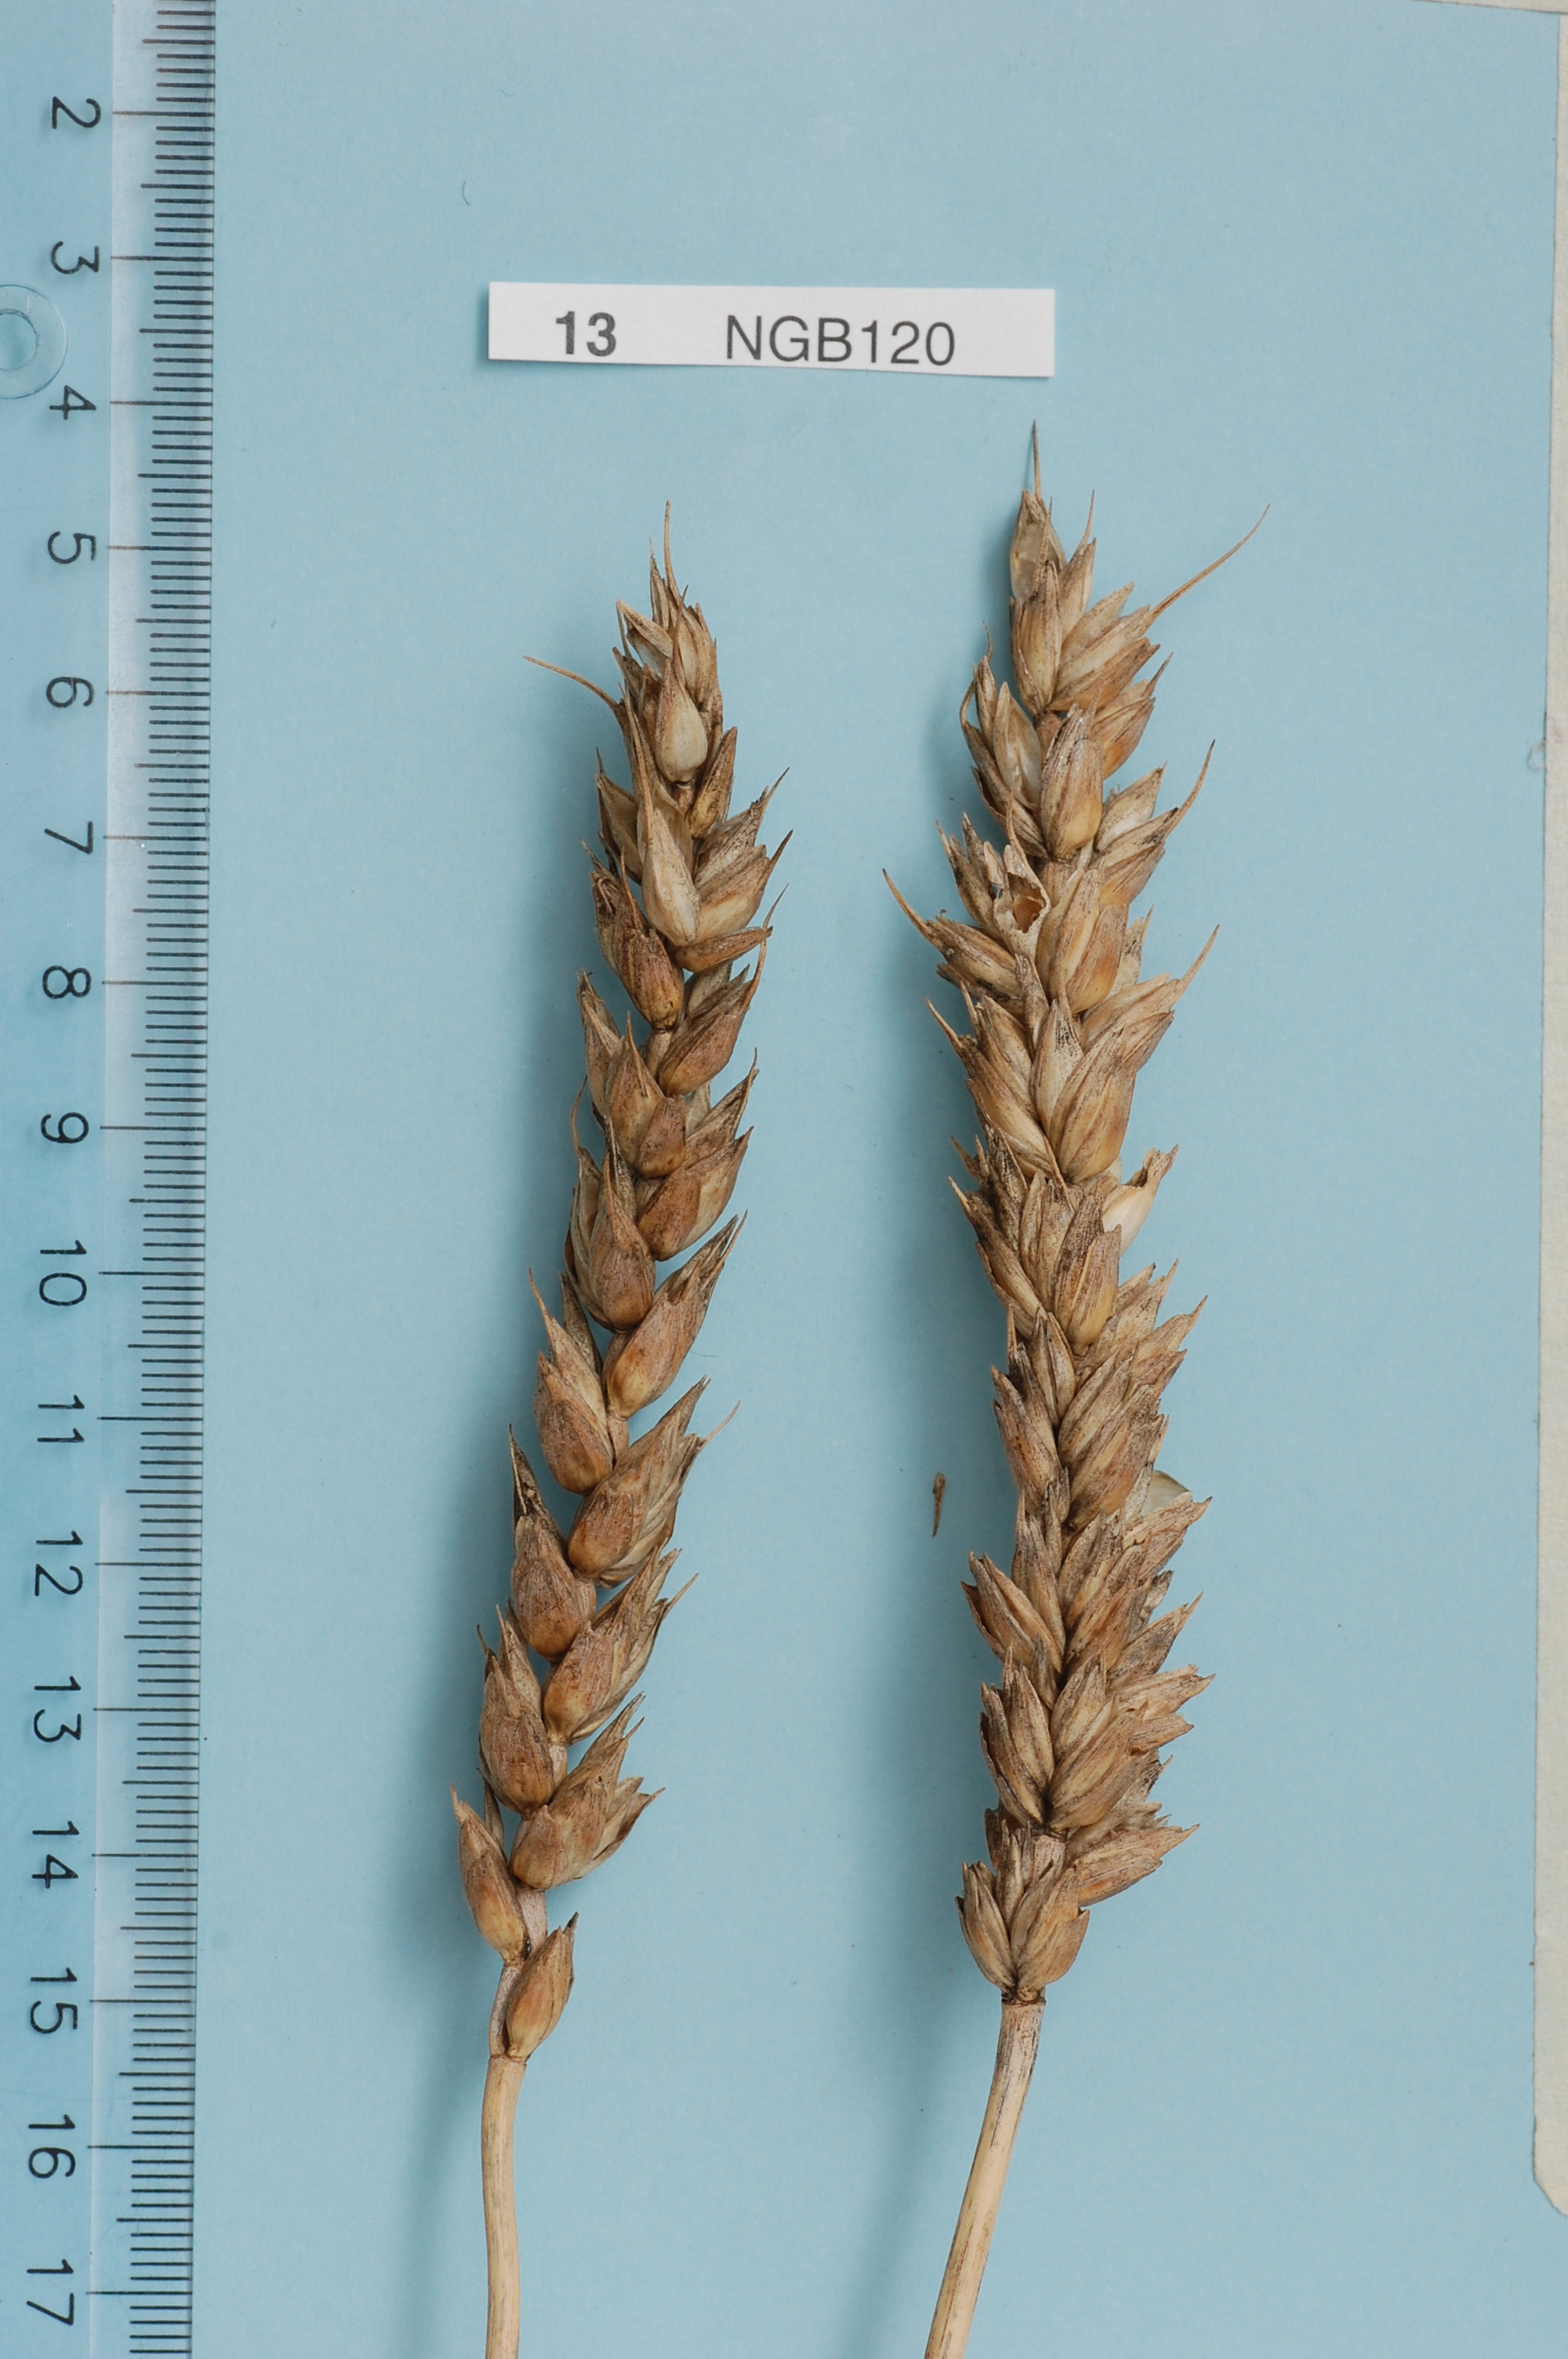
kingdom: Plantae
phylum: Tracheophyta
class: Liliopsida
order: Poales
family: Poaceae
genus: Triticum
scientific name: Triticum aestivum
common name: Common wheat
